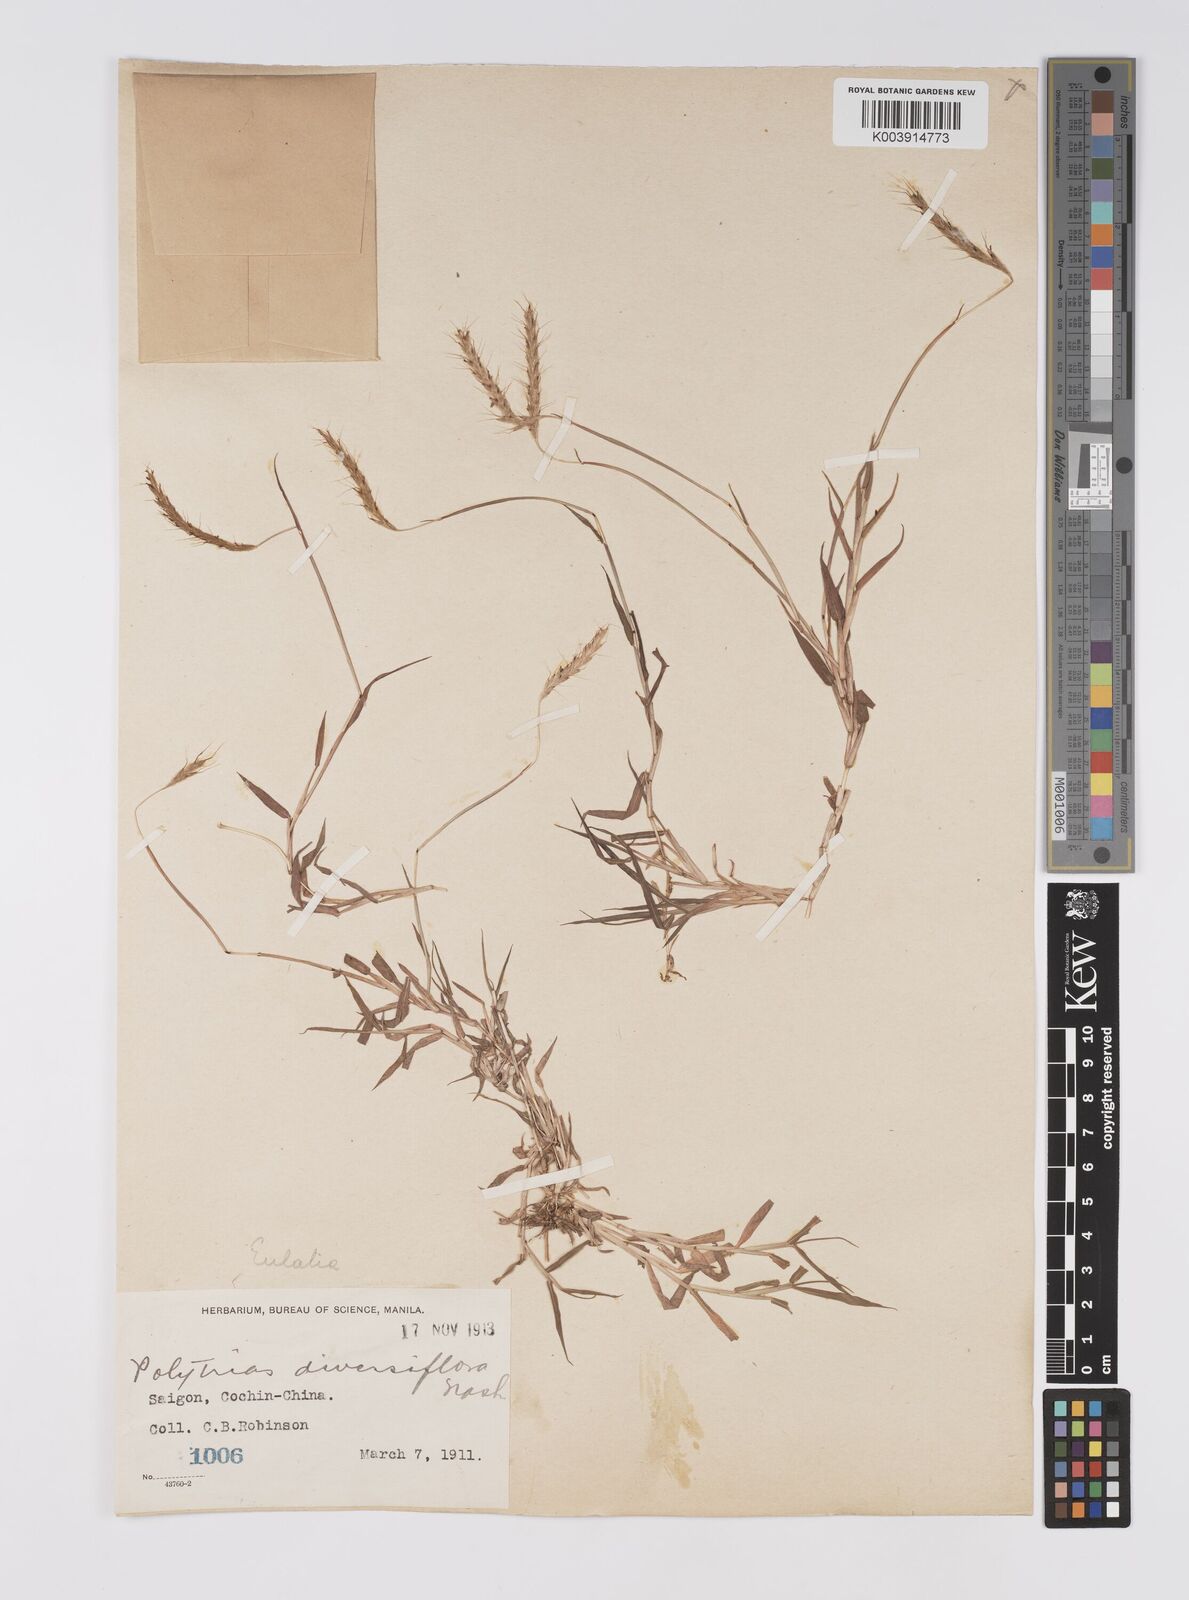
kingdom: Plantae
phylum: Tracheophyta
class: Liliopsida
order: Poales
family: Poaceae
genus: Polytrias
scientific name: Polytrias indica
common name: Indian murainagrass
